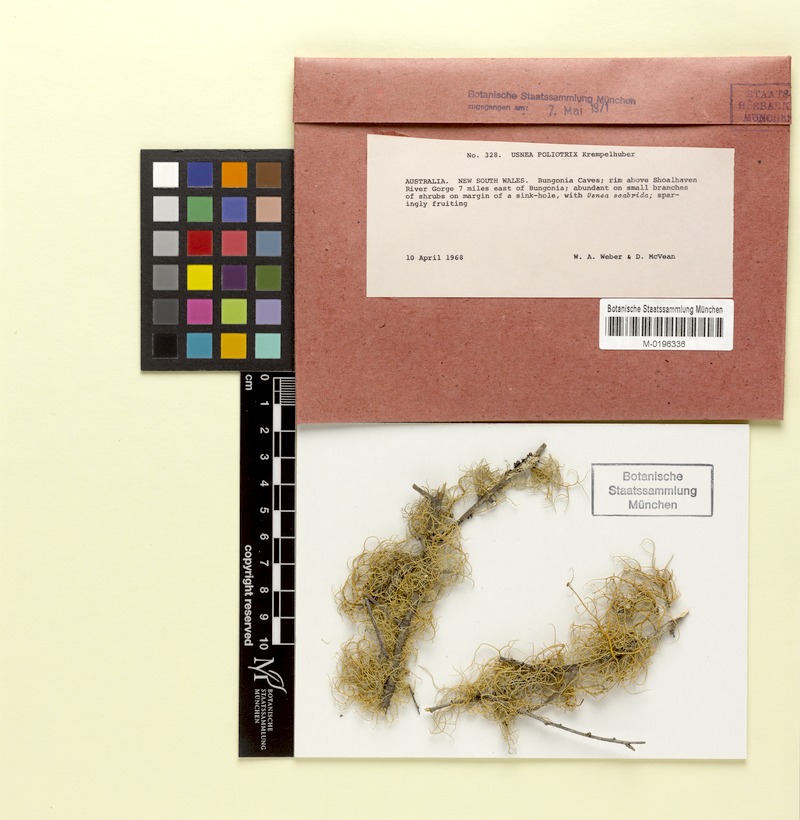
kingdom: Fungi
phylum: Ascomycota
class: Lecanoromycetes
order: Lecanorales
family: Parmeliaceae
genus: Usnea
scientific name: Usnea poliotrix
